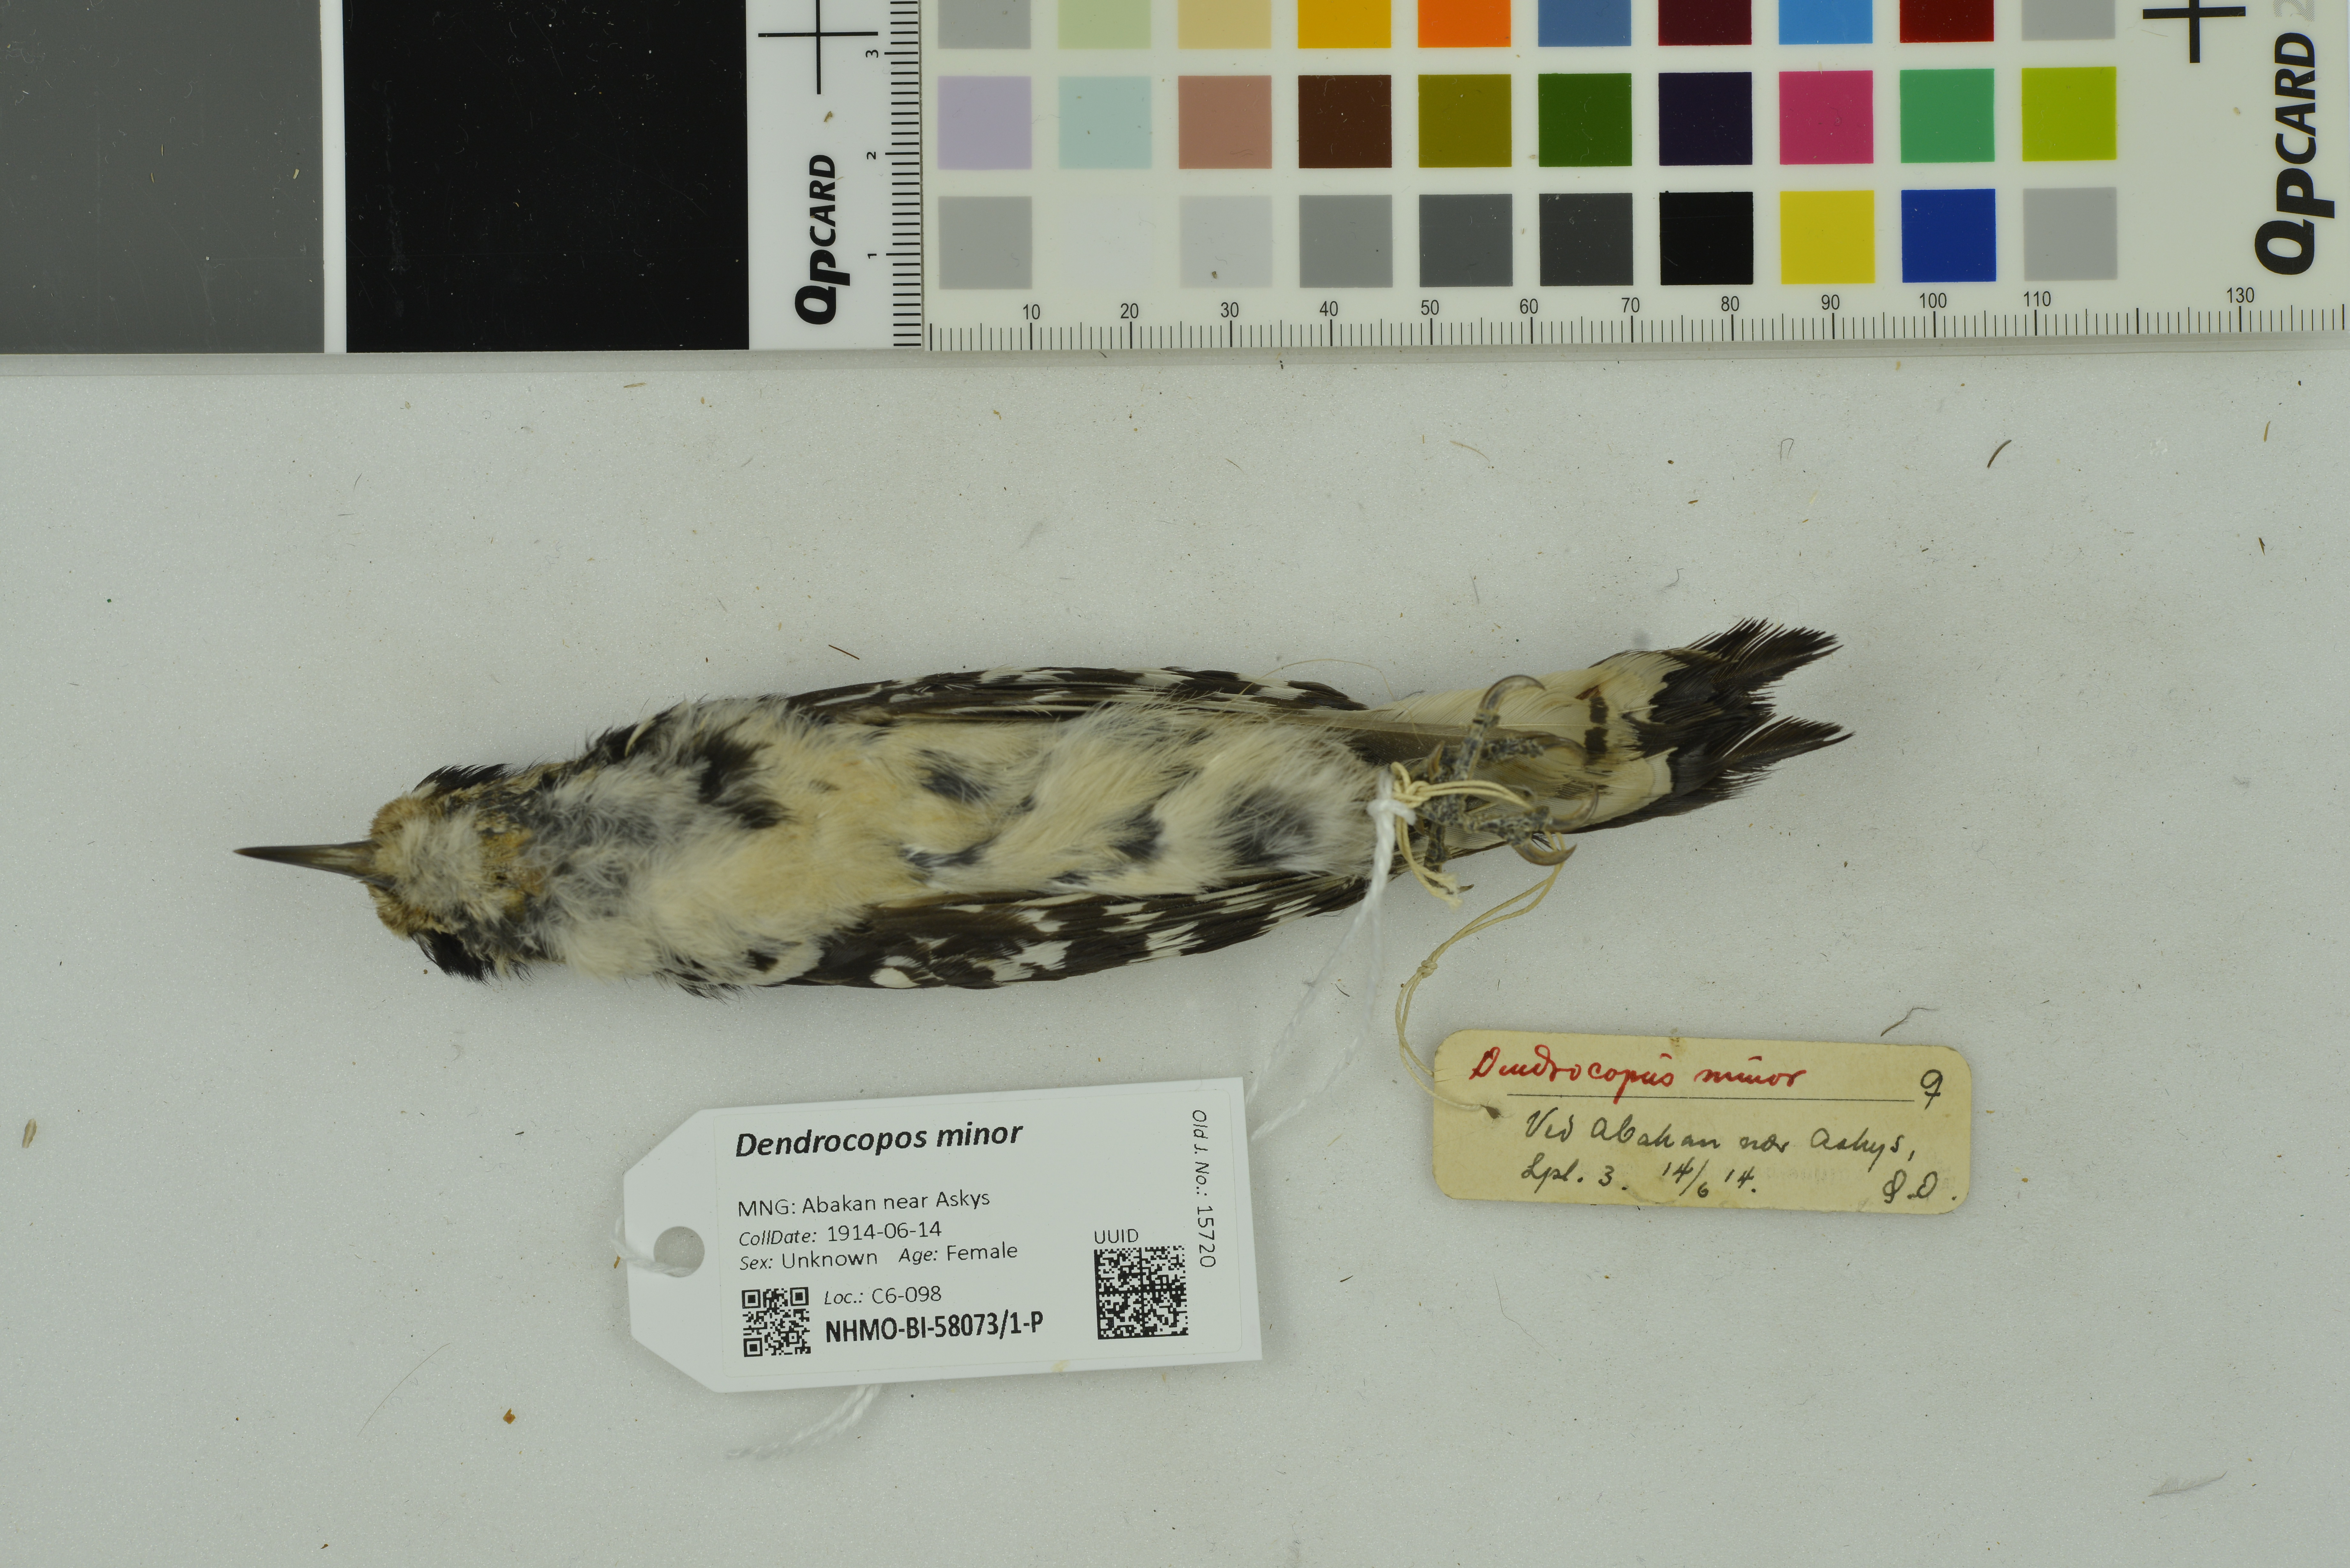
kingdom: Animalia
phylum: Chordata
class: Aves
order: Piciformes
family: Picidae
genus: Dryobates
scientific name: Dryobates minor
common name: Lesser spotted woodpecker
